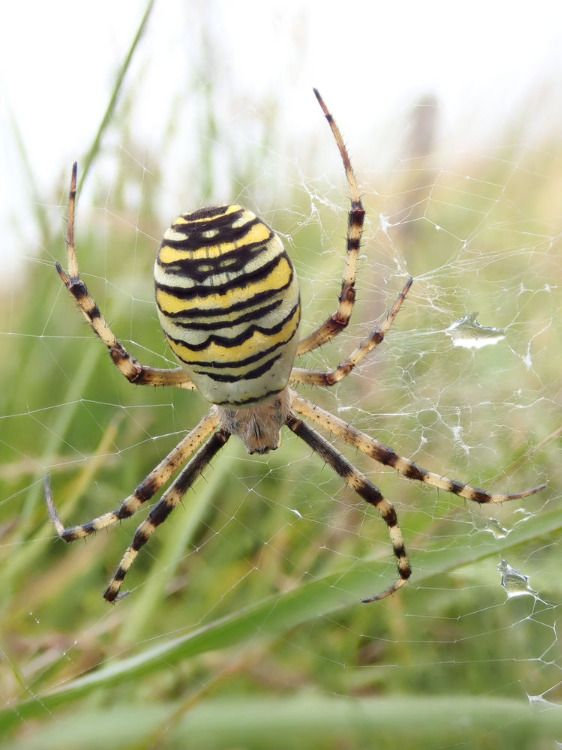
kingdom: Animalia
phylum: Arthropoda
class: Arachnida
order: Araneae
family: Araneidae
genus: Argiope
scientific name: Argiope bruennichi
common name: Hvepseedderkop
